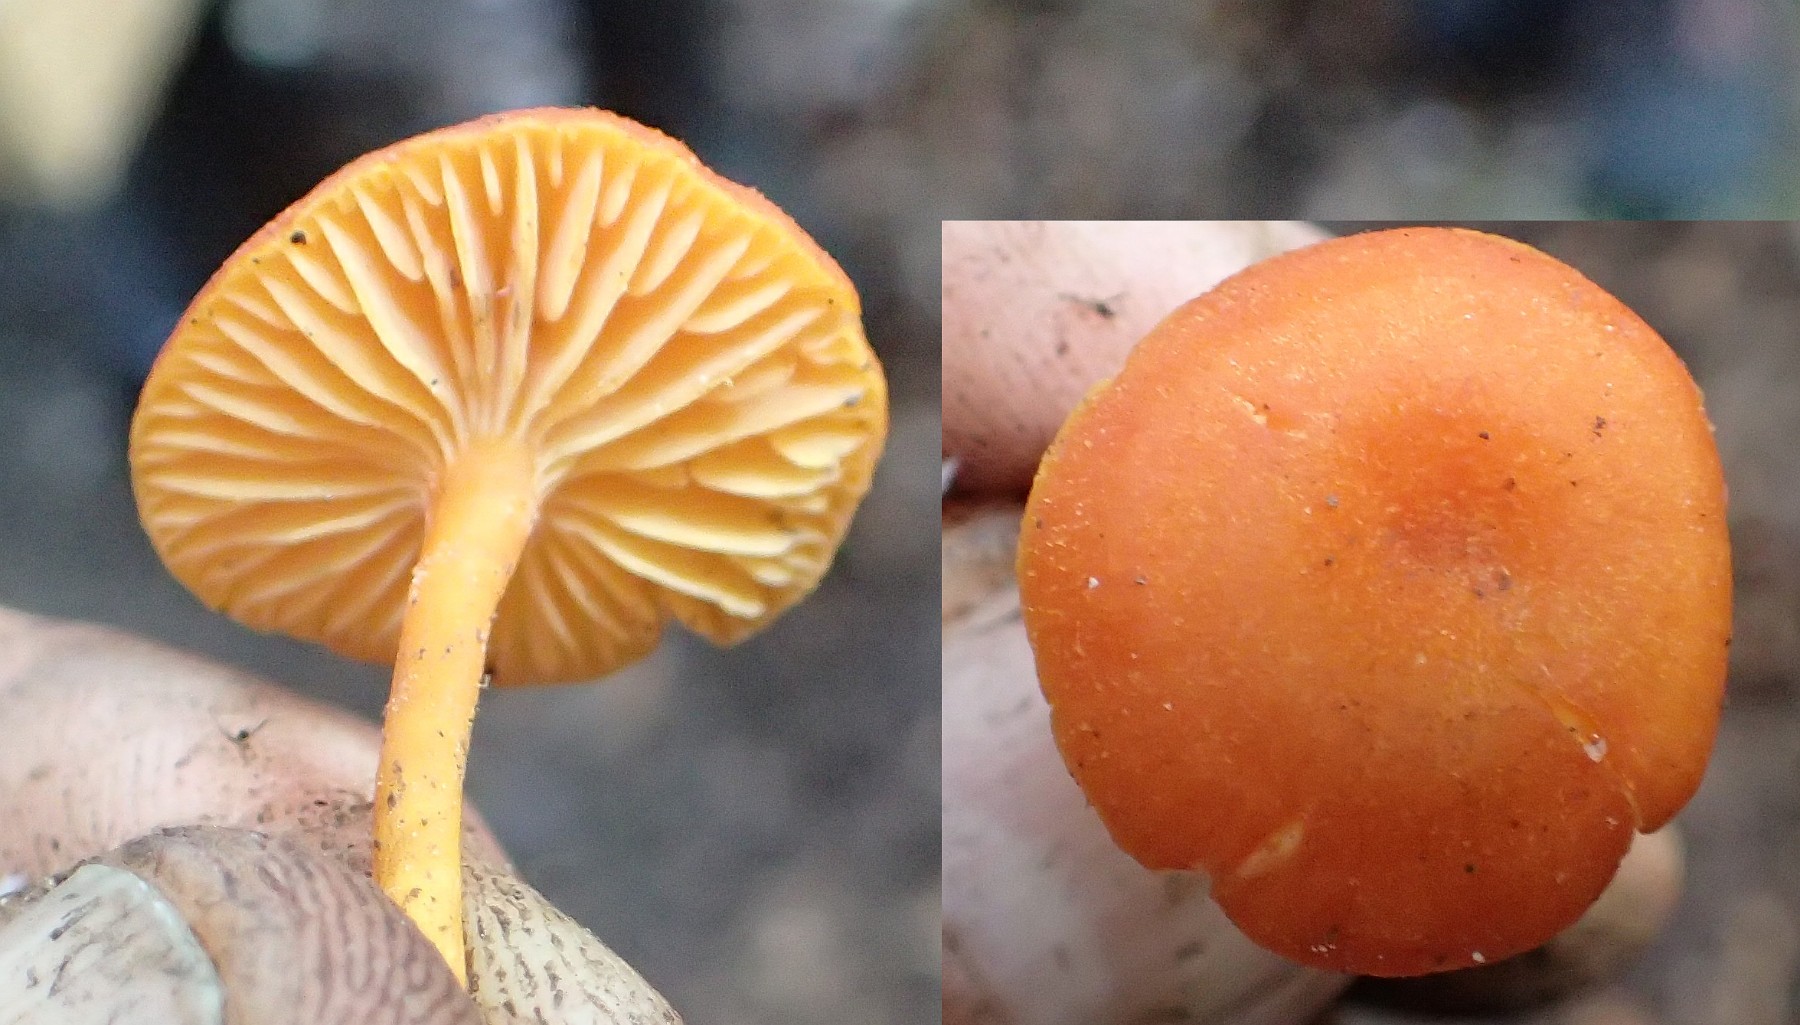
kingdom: Fungi
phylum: Basidiomycota
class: Agaricomycetes
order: Agaricales
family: Hygrophoraceae
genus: Hygrocybe
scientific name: Hygrocybe miniata
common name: mønje-vokshat
